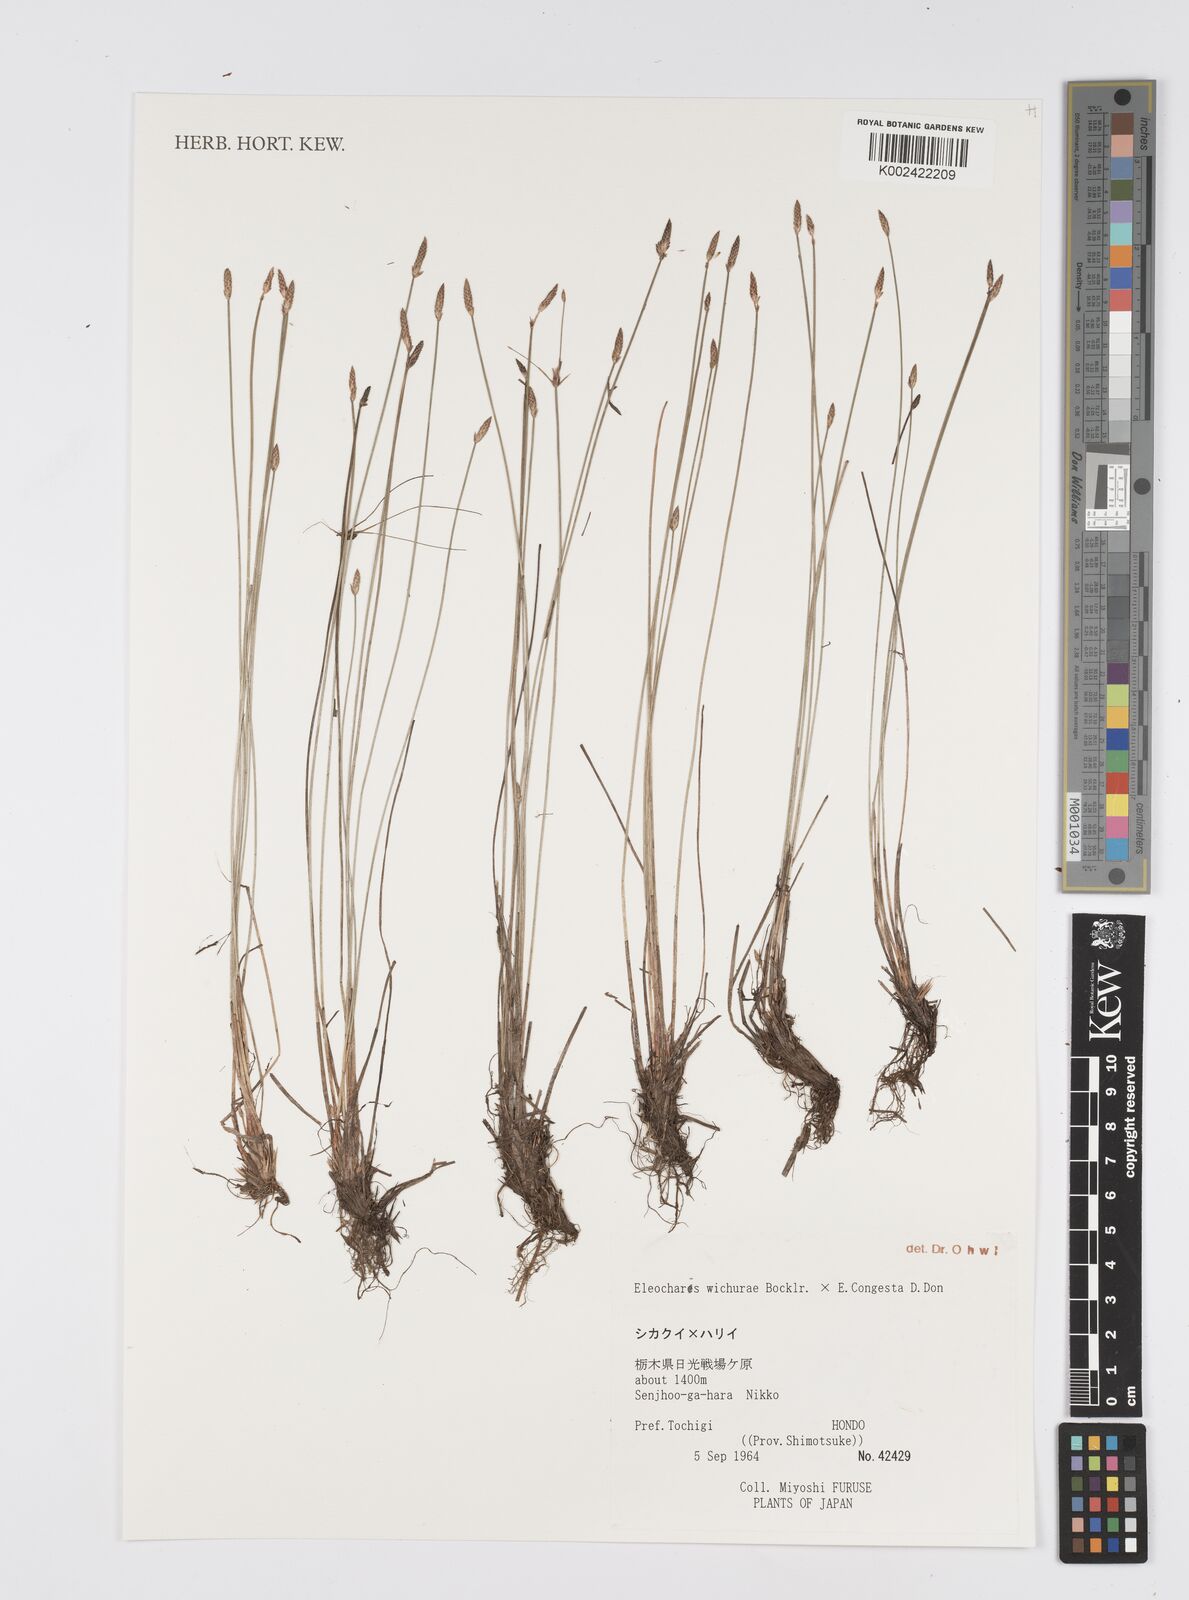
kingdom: Plantae
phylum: Tracheophyta
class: Liliopsida
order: Poales
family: Cyperaceae
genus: Eleocharis
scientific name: Eleocharis
